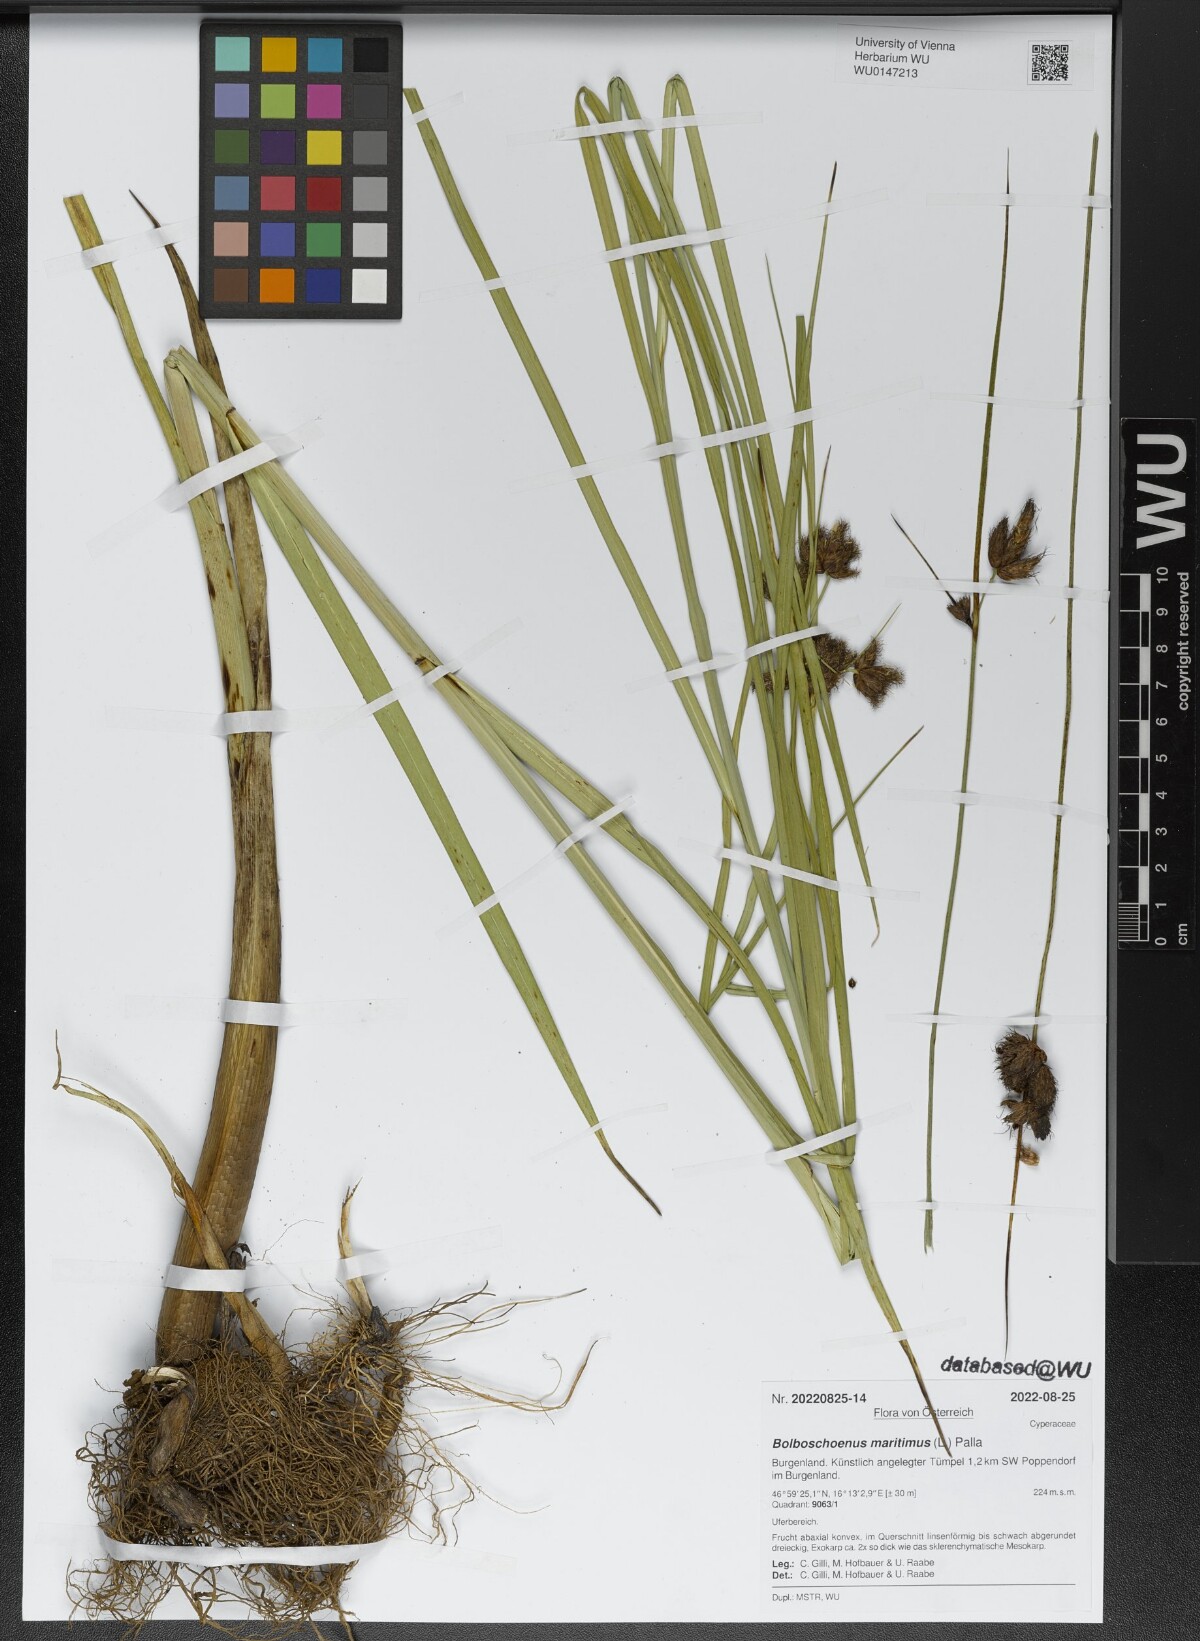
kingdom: Plantae
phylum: Tracheophyta
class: Liliopsida
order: Poales
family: Cyperaceae
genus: Bolboschoenus
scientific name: Bolboschoenus maritimus
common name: Sea club-rush
